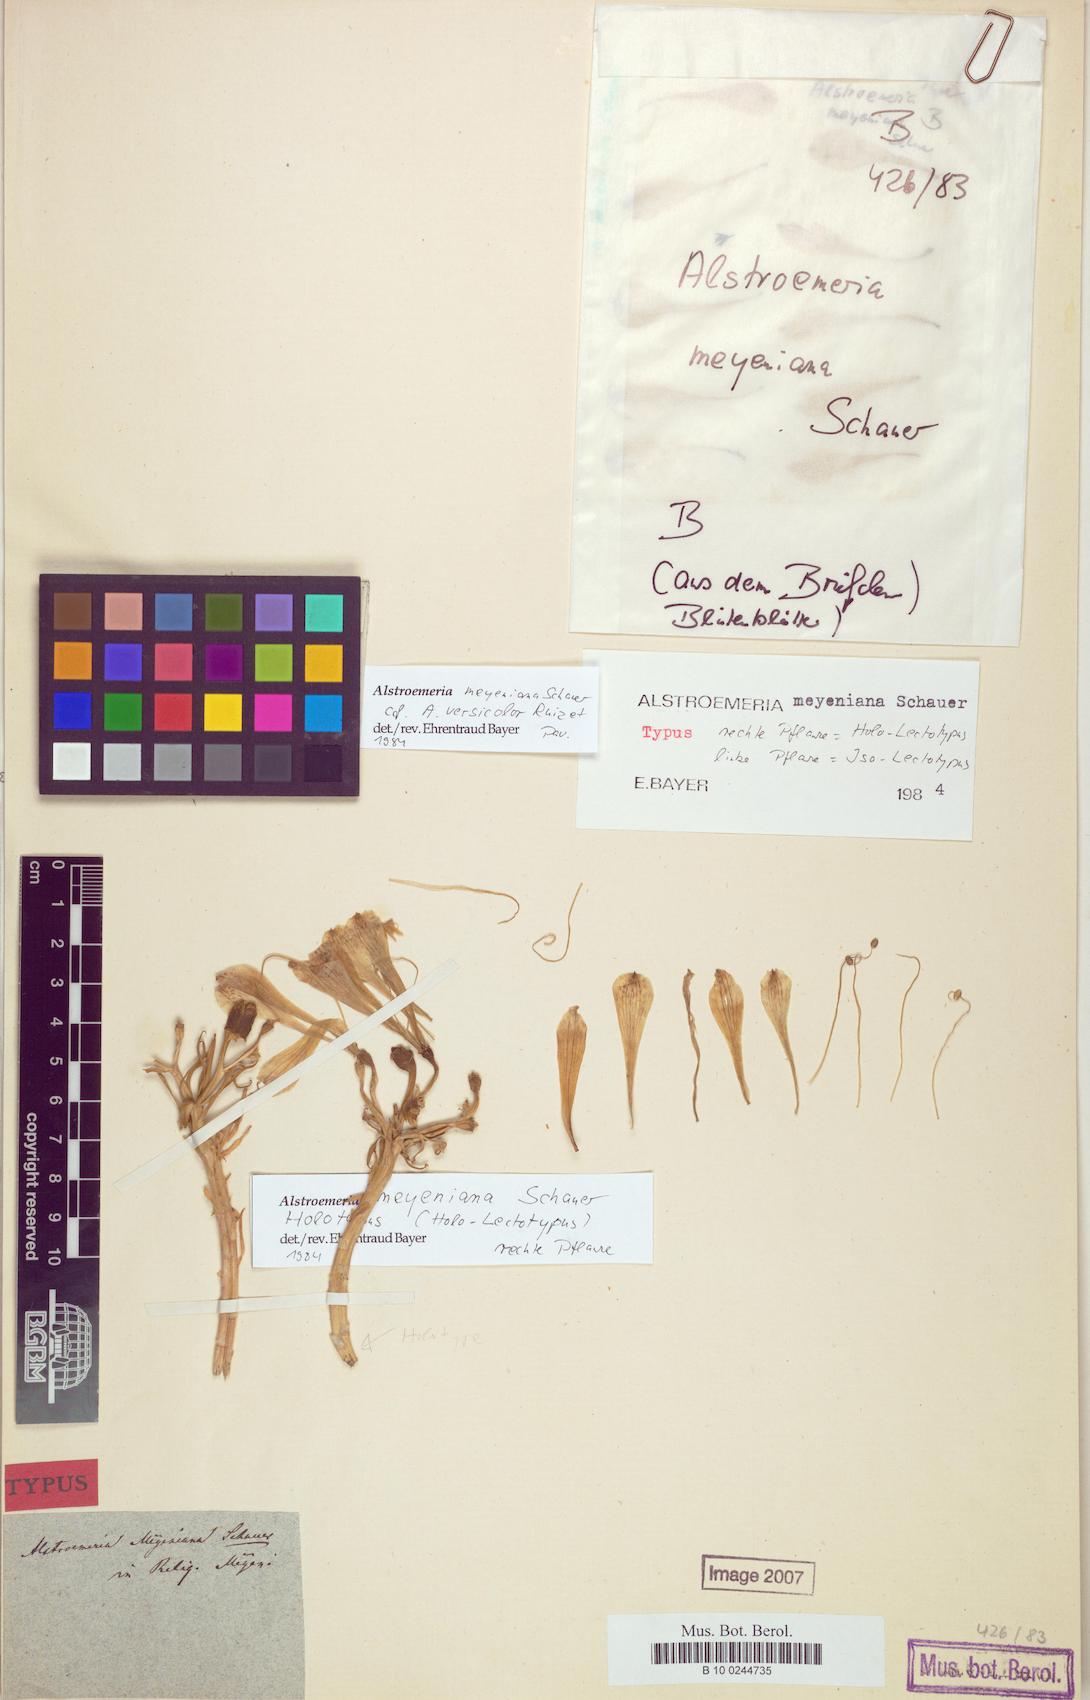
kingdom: Plantae
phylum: Tracheophyta
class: Liliopsida
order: Liliales
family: Alstroemeriaceae
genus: Alstroemeria
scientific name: Alstroemeria versicolor
